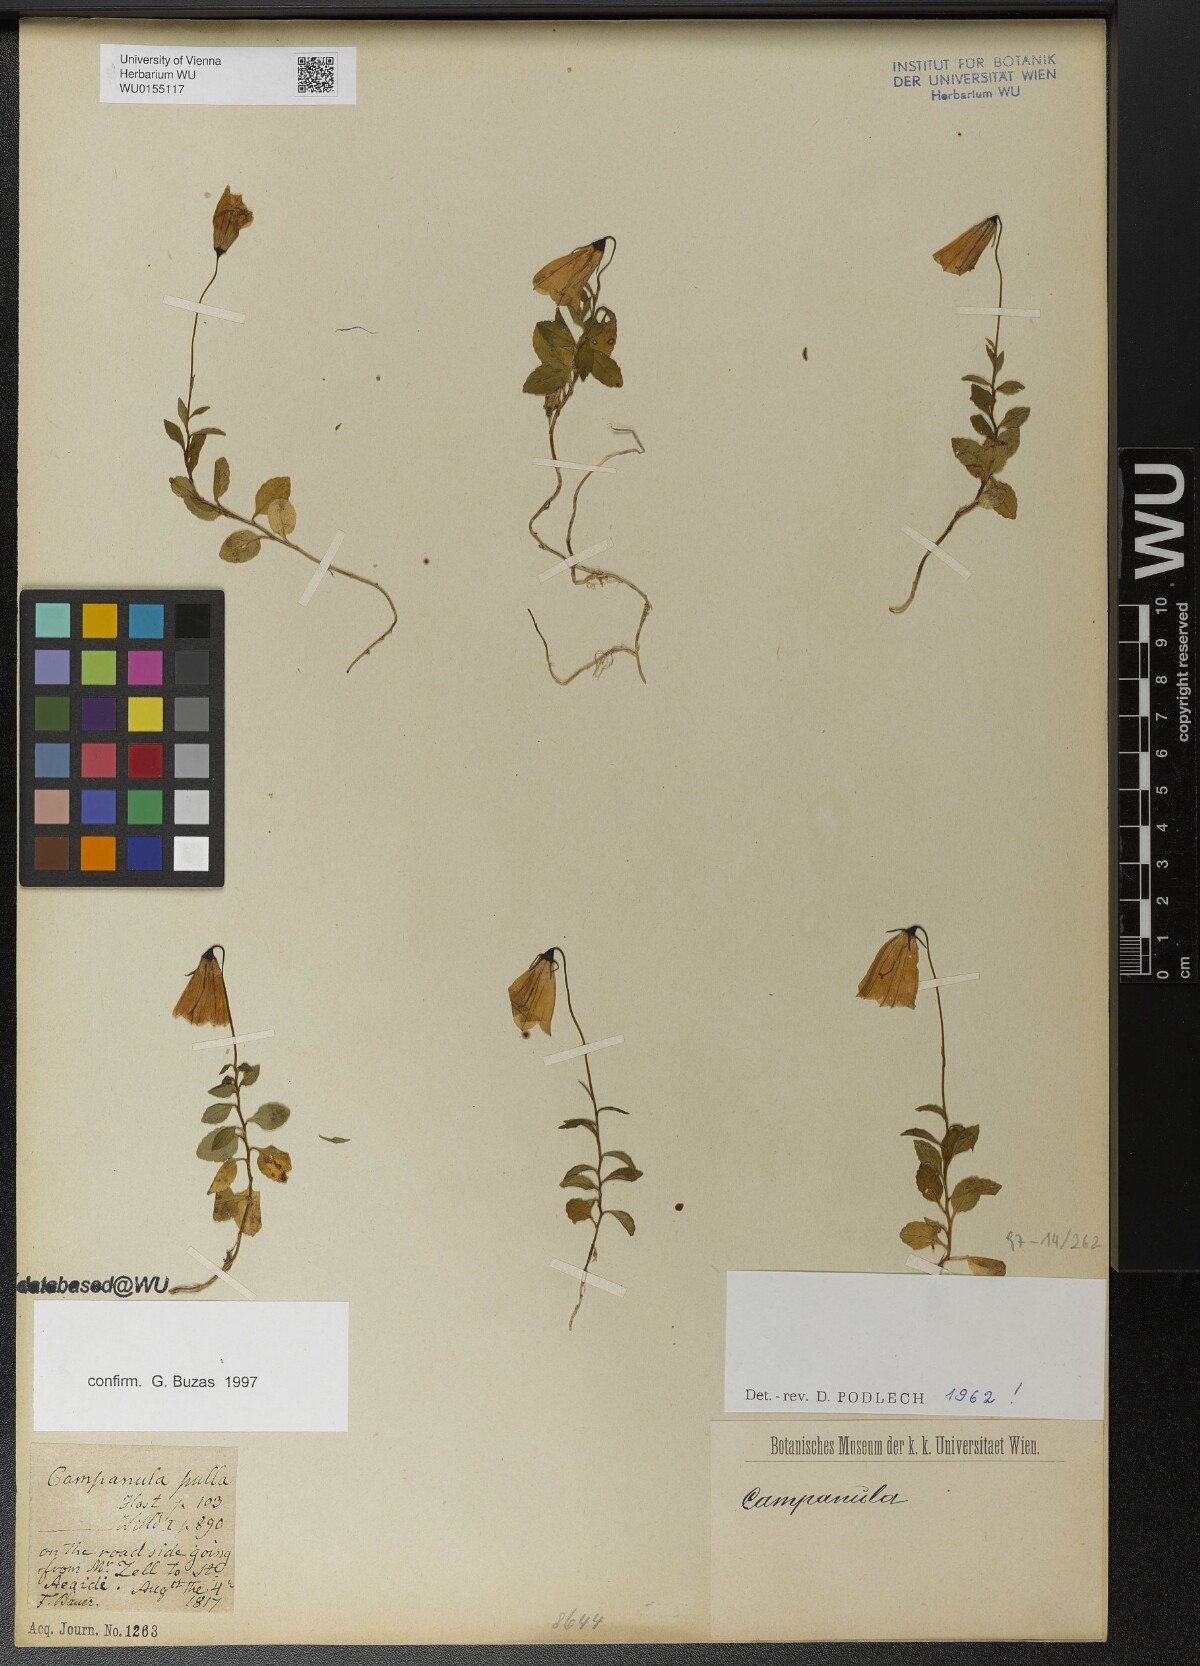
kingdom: Plantae
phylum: Tracheophyta
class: Magnoliopsida
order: Asterales
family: Campanulaceae
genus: Campanula
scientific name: Campanula pulla
